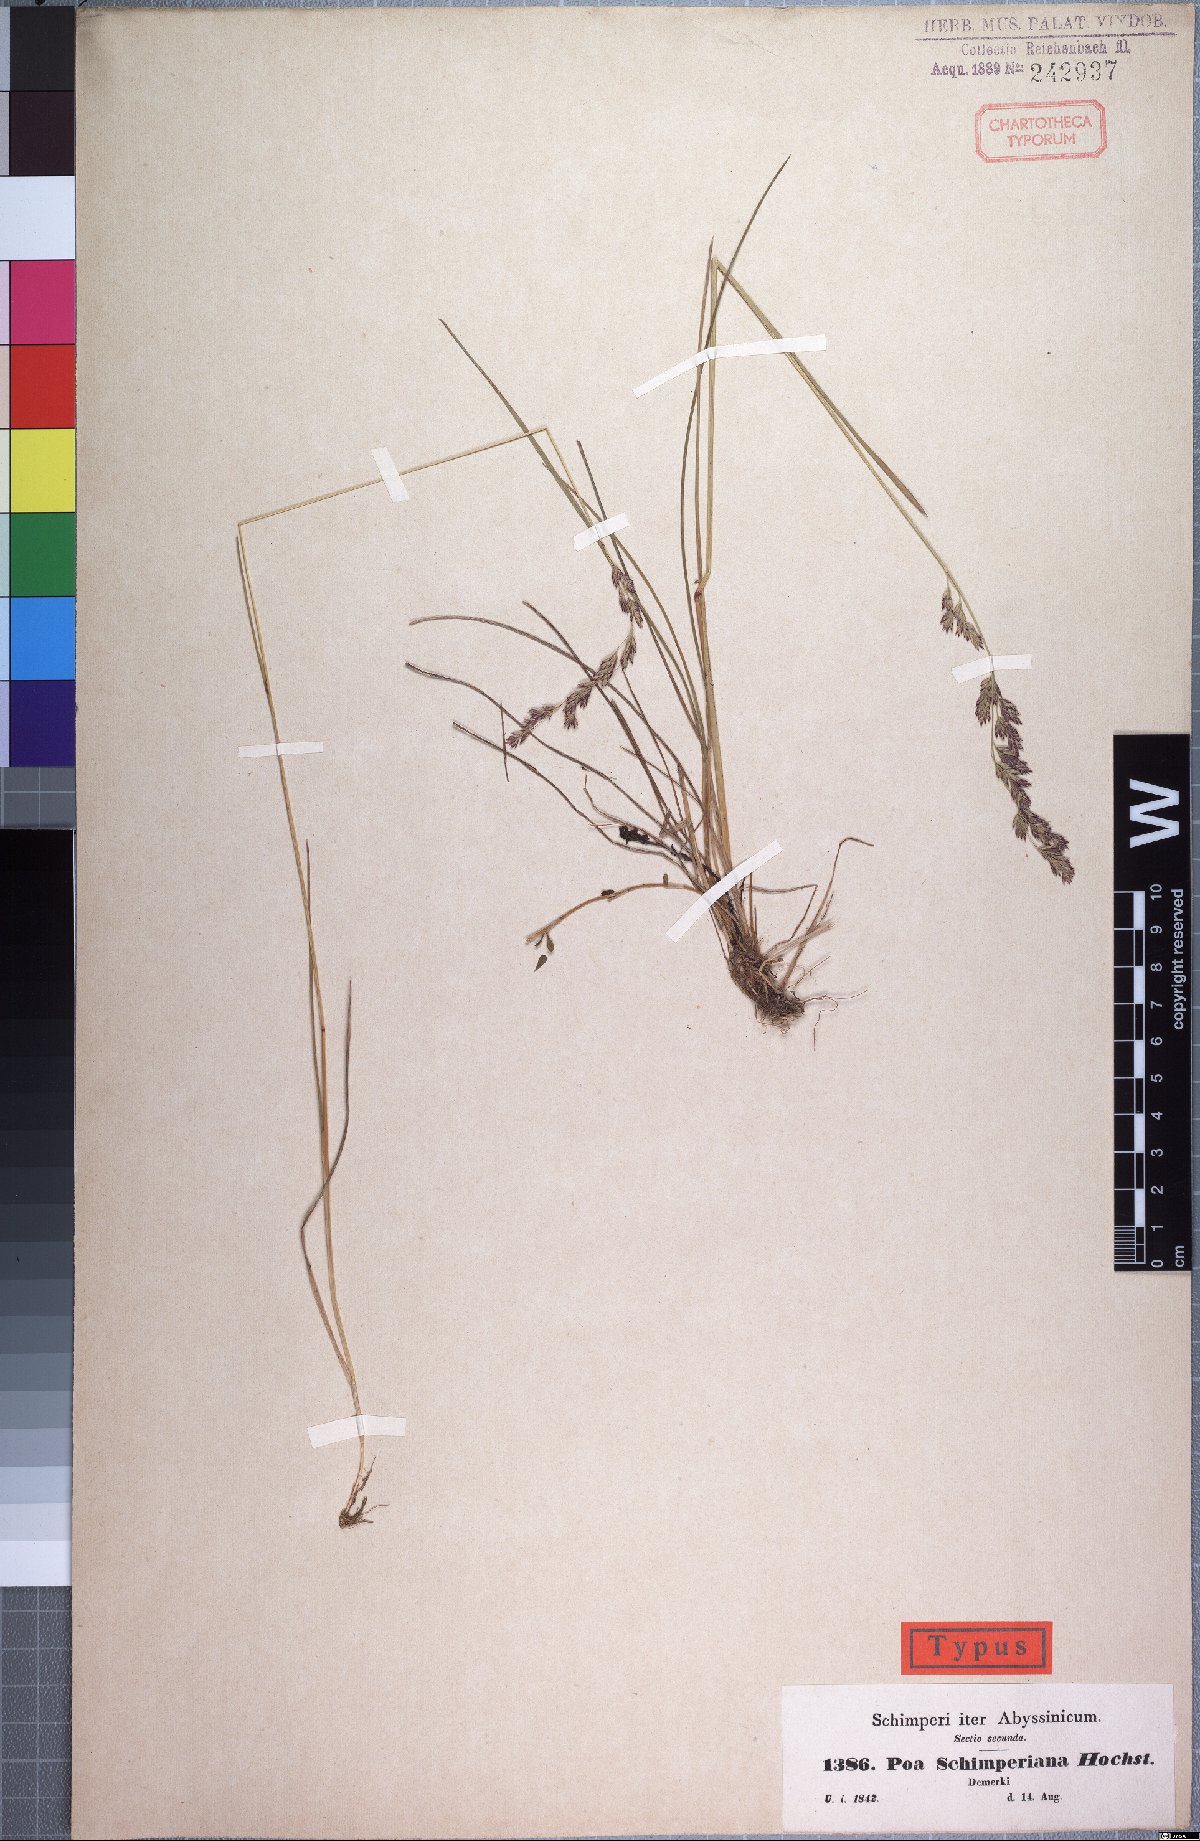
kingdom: Plantae
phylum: Tracheophyta
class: Liliopsida
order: Poales
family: Poaceae
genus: Poa
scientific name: Poa schimperiana
